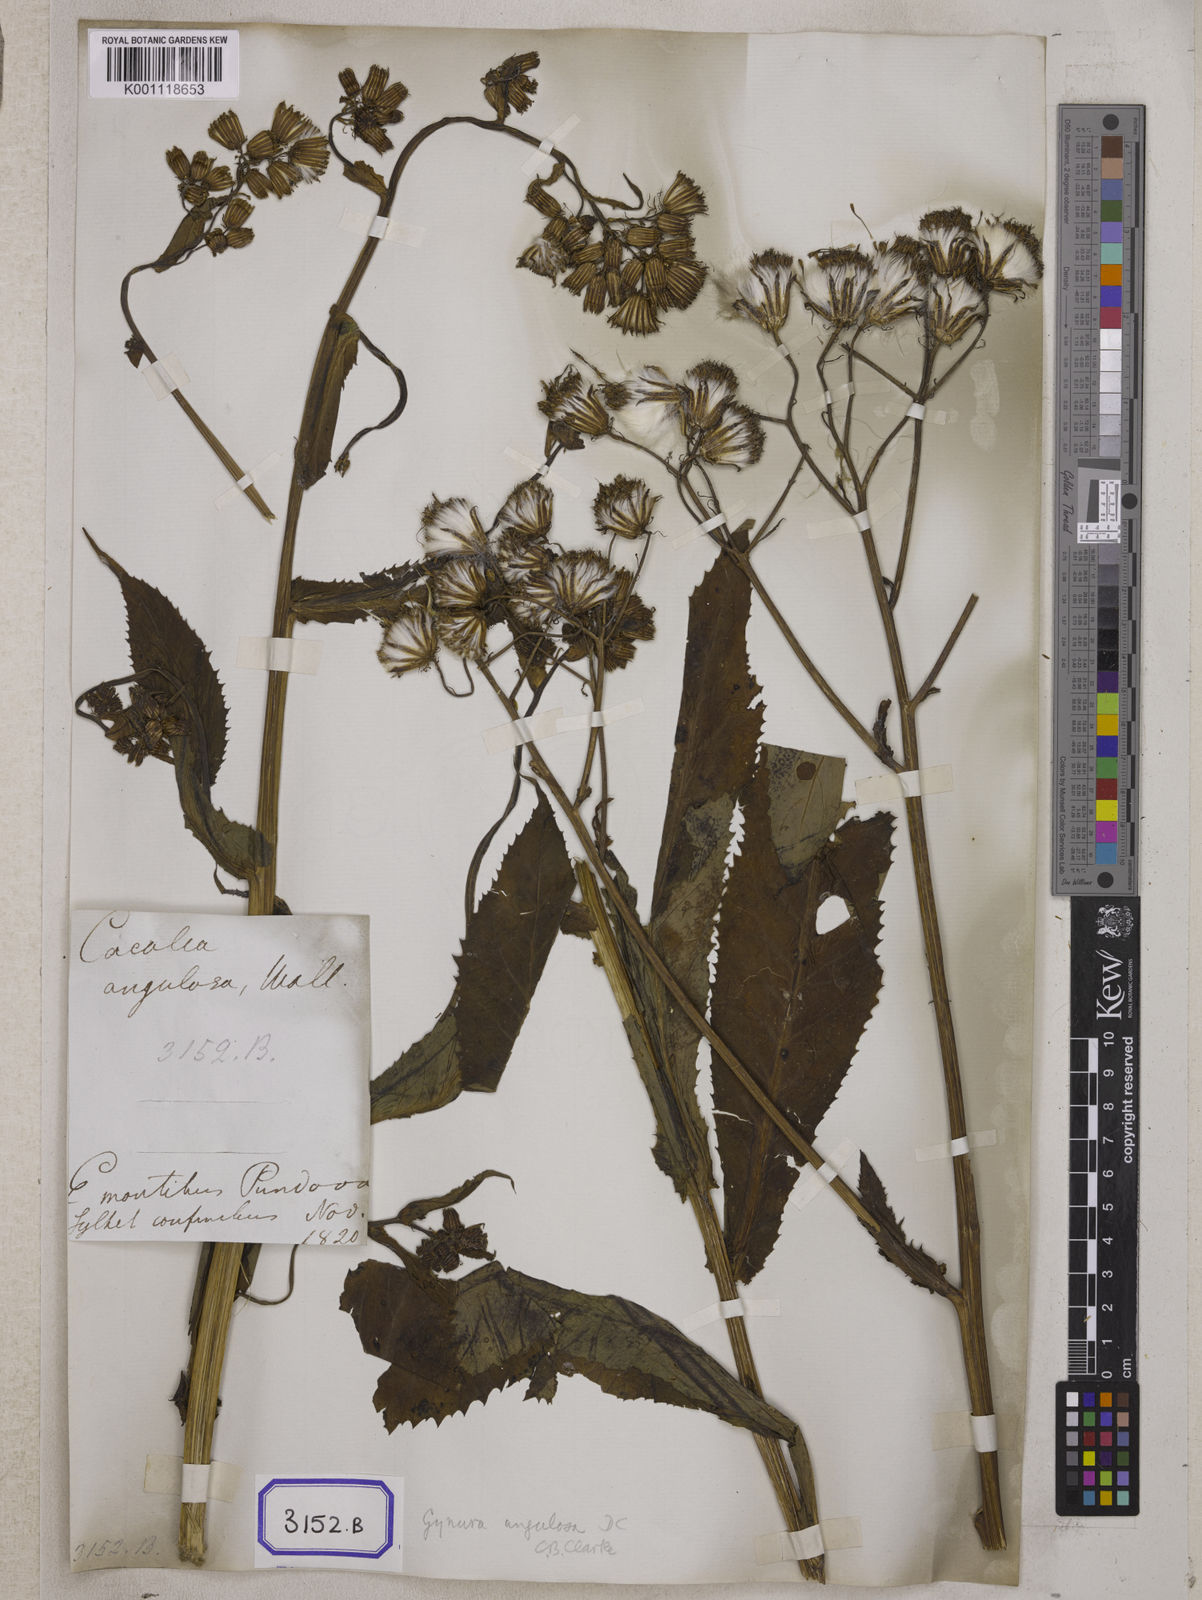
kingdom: Plantae
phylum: Tracheophyta
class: Magnoliopsida
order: Asterales
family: Asteraceae
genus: Gynura
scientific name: Gynura bicolor
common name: Red-vegetable
